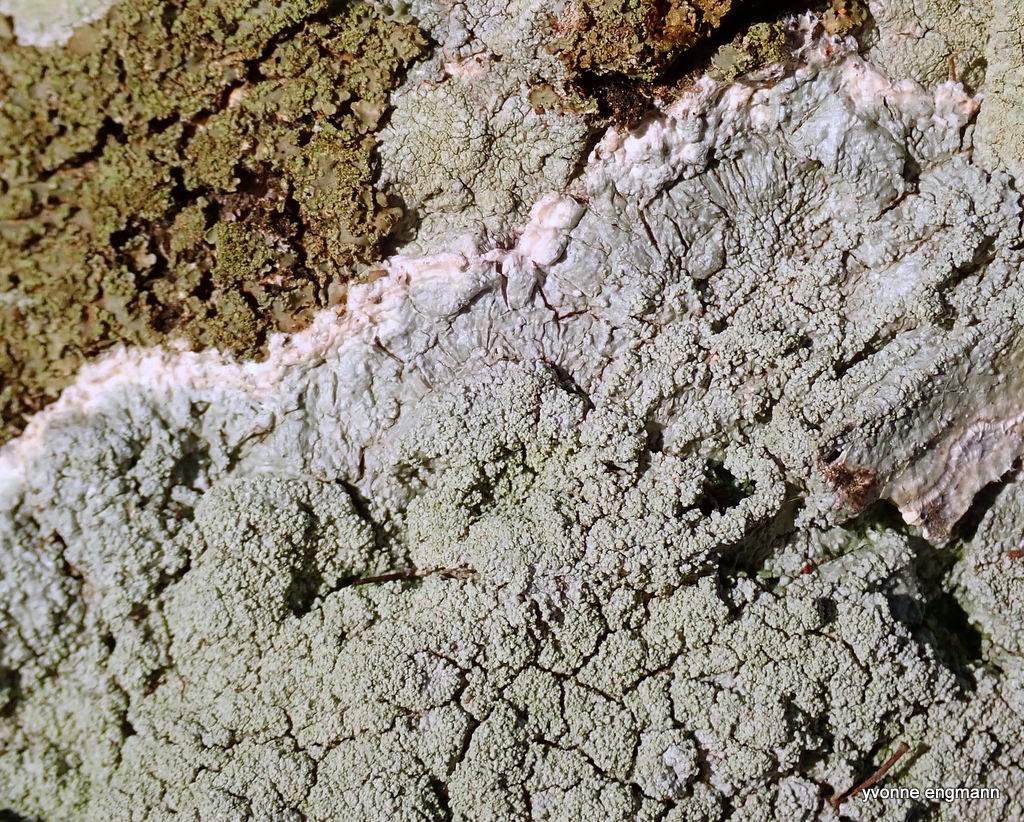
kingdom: Fungi
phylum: Ascomycota
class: Lecanoromycetes
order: Lecanorales
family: Haematommataceae
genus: Haematomma
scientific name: Haematomma ochroleucum
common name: gul trådkantlav
